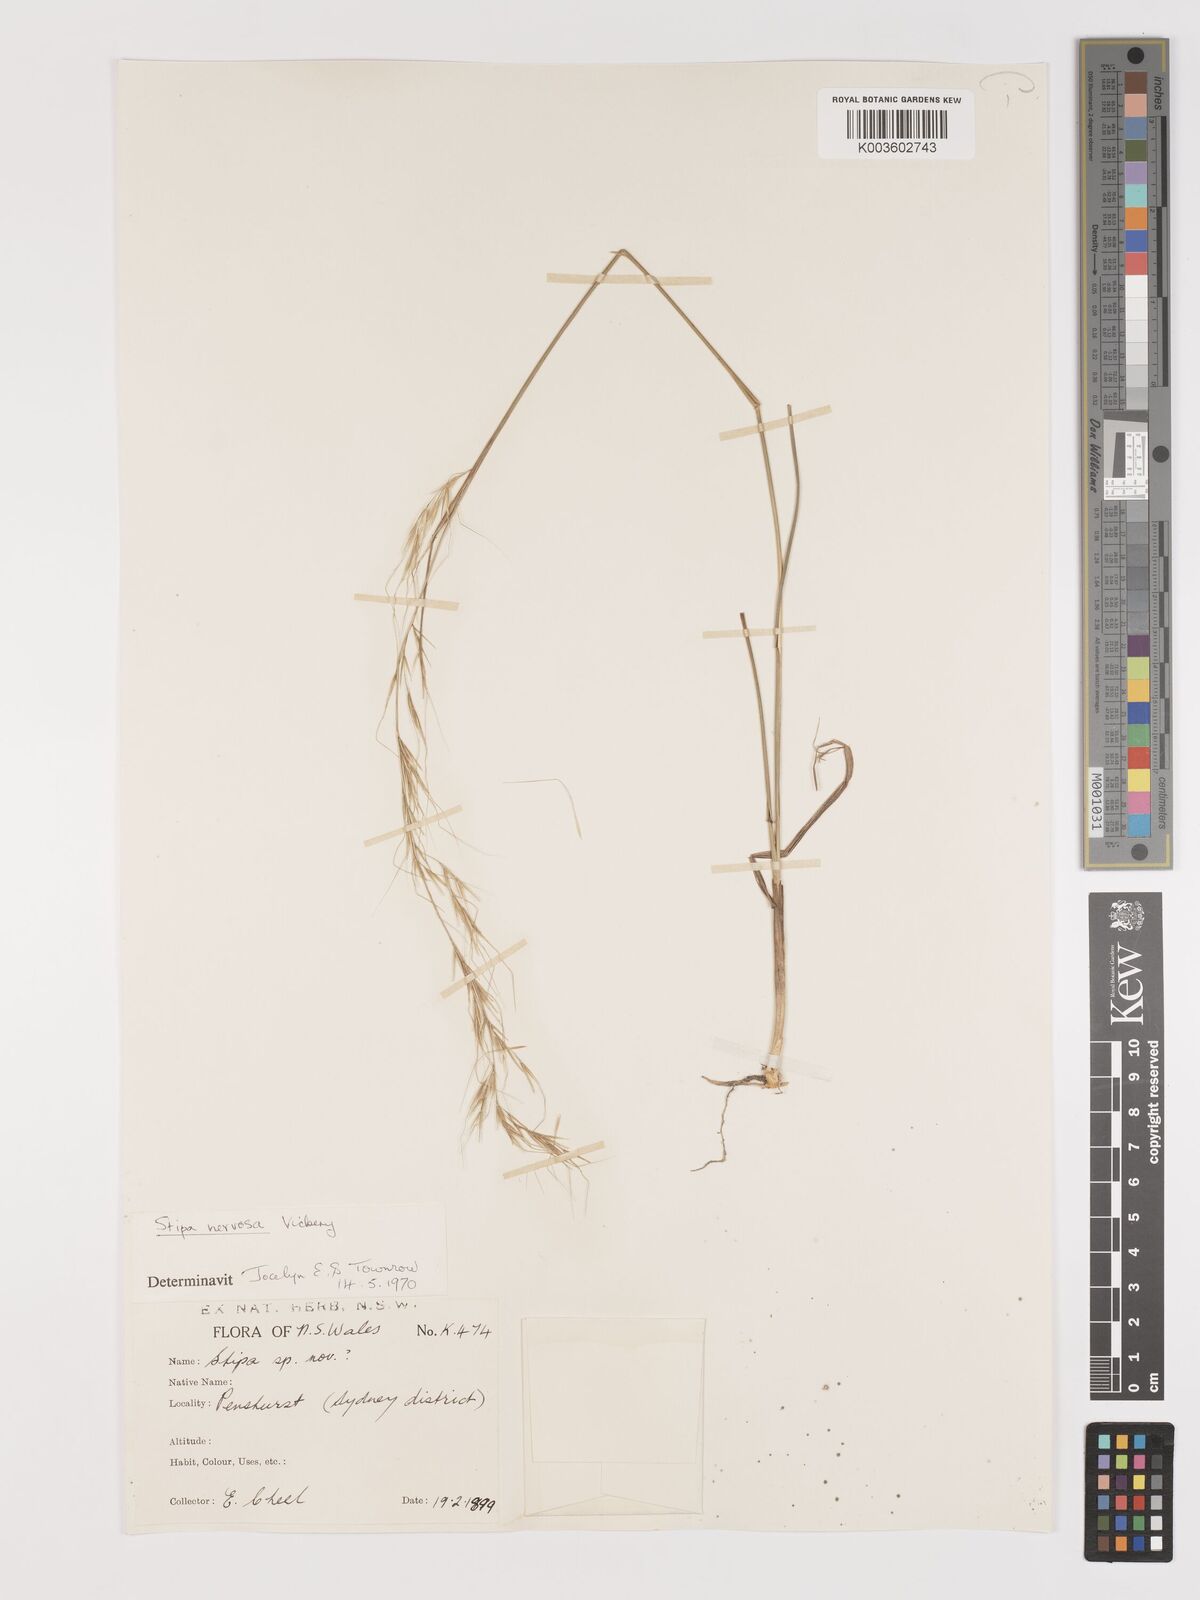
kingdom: Plantae
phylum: Tracheophyta
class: Liliopsida
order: Poales
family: Poaceae
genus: Austrostipa
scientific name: Austrostipa rudis
